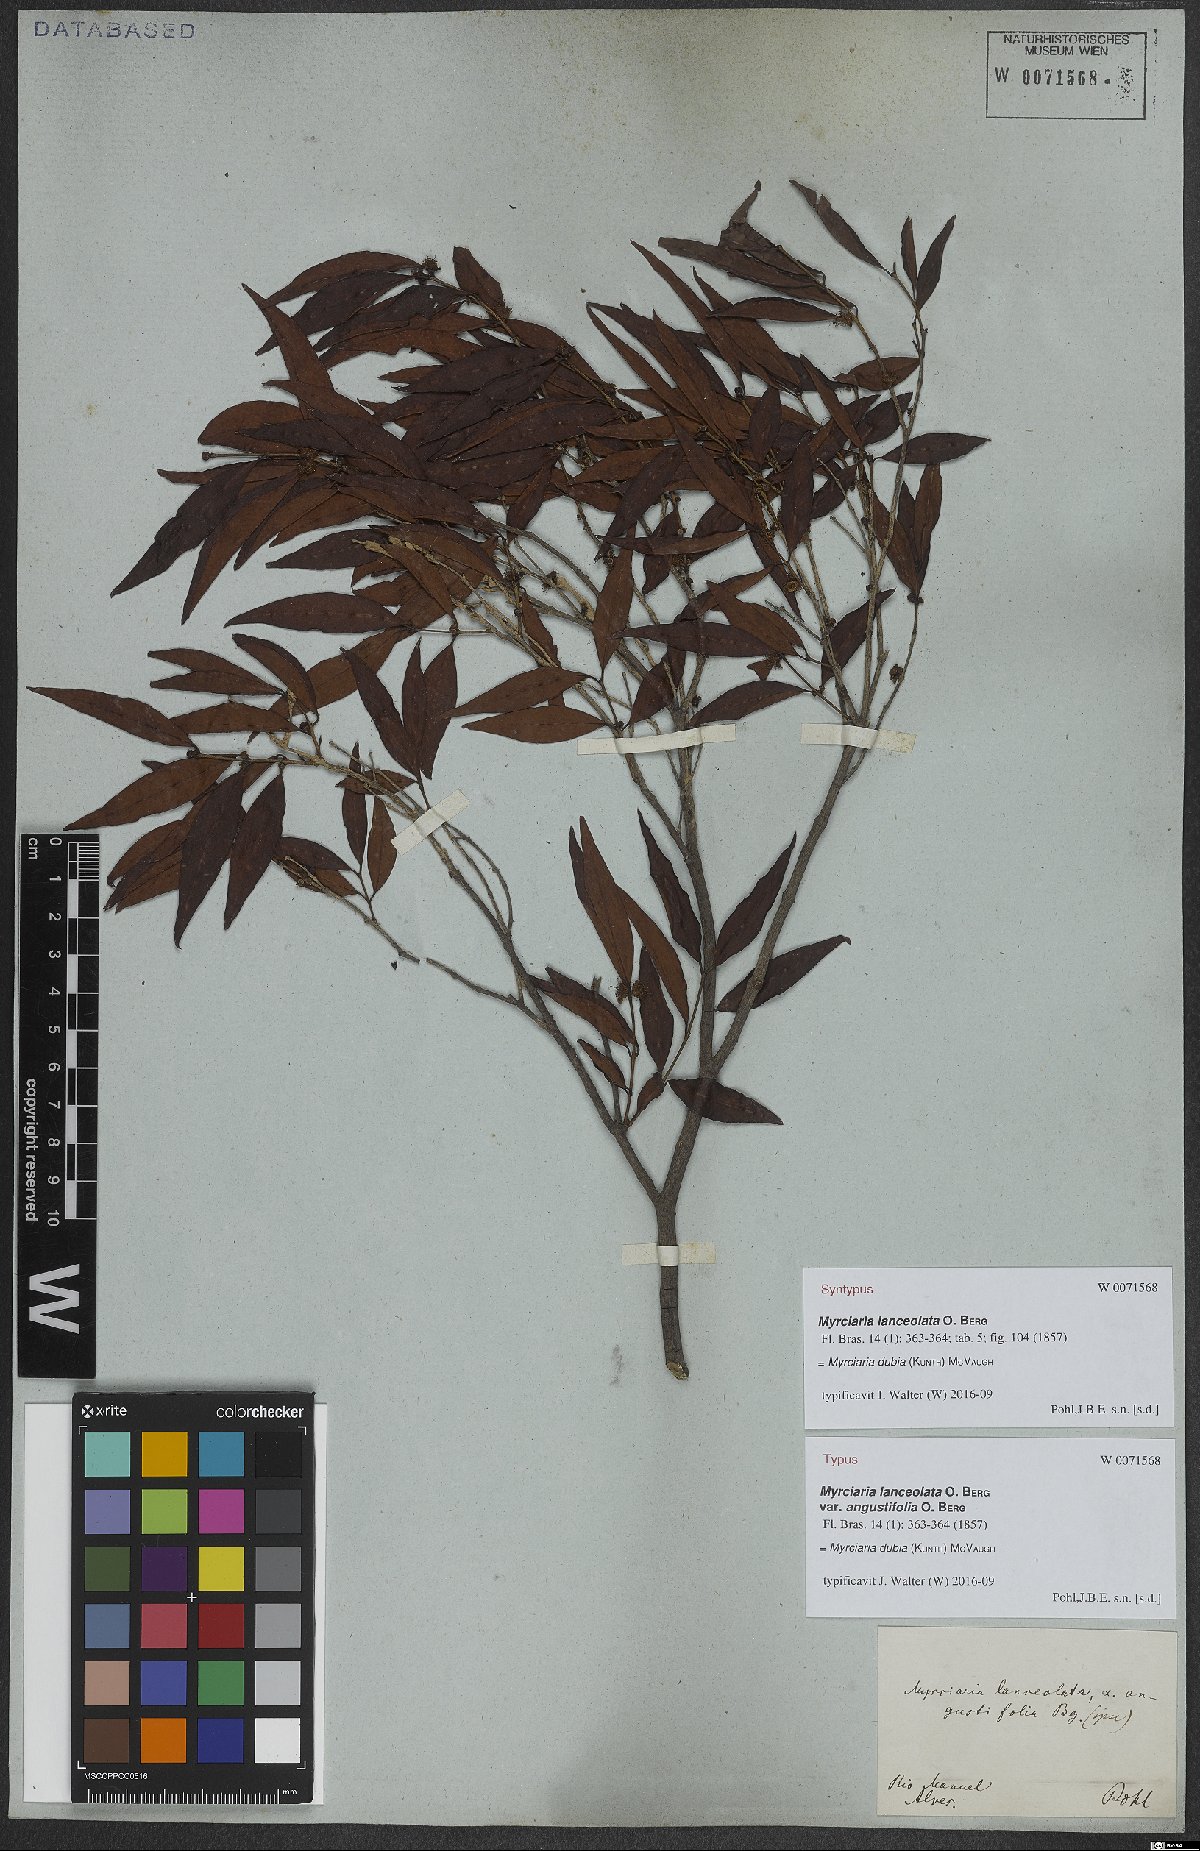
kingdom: Plantae
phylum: Tracheophyta
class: Magnoliopsida
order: Myrtales
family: Myrtaceae
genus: Myrciaria
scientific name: Myrciaria dubia
